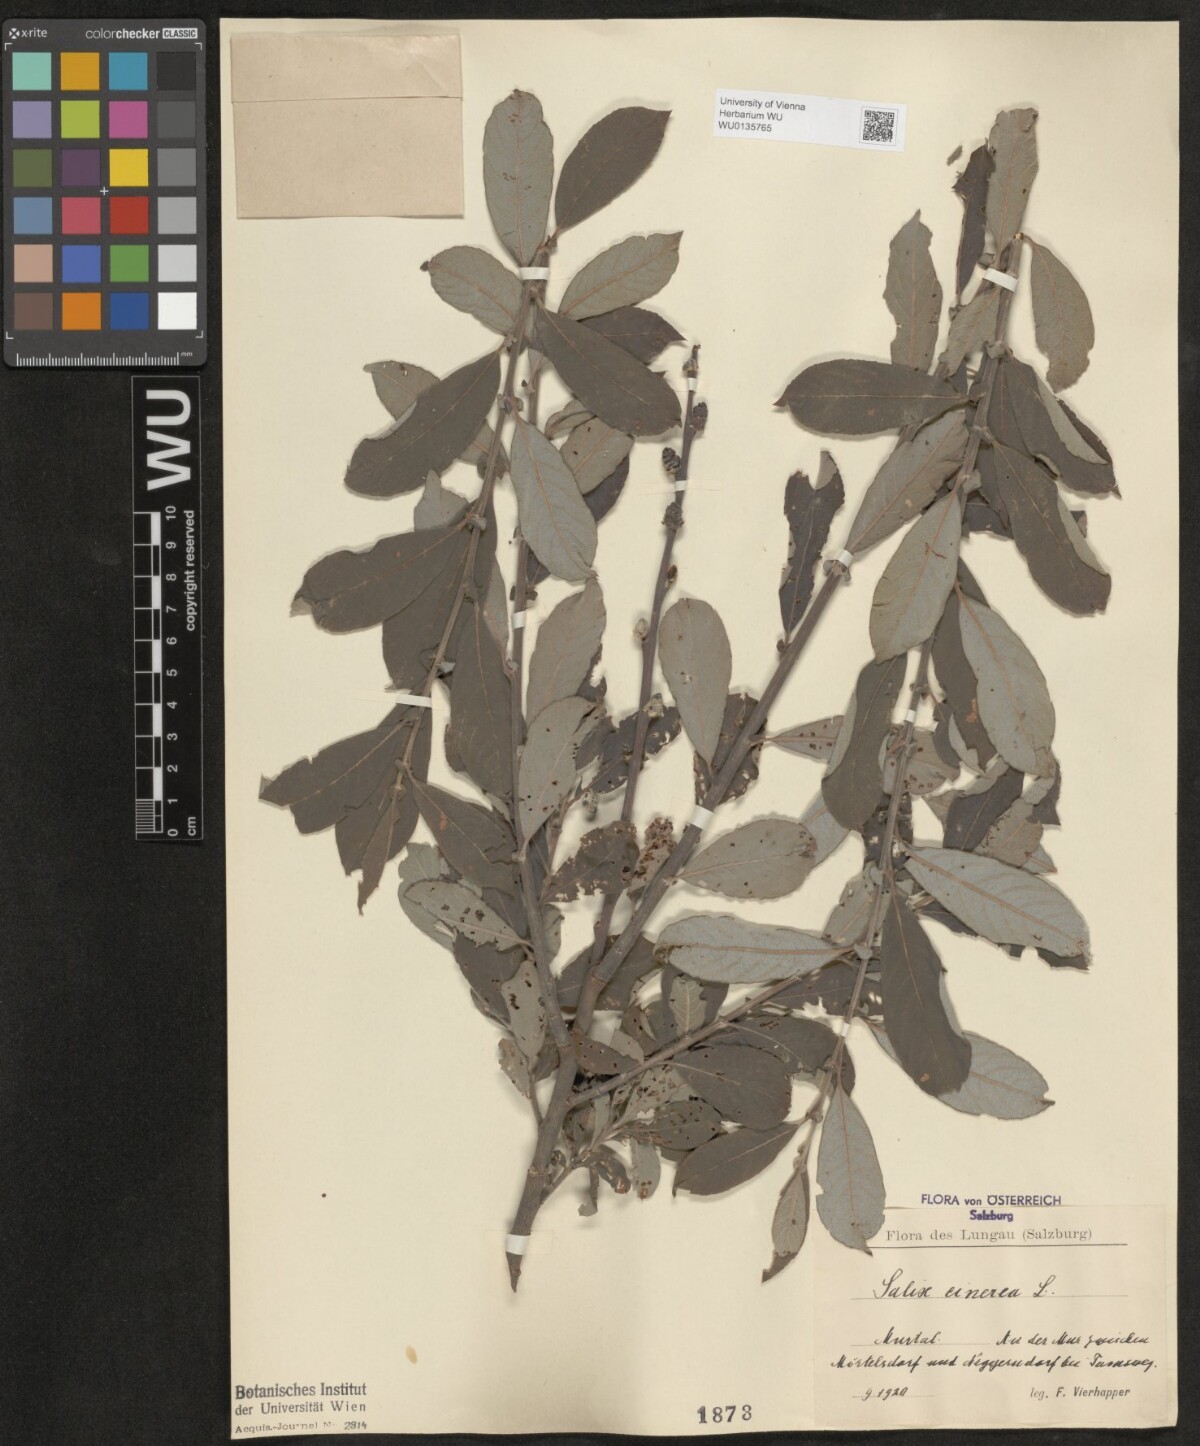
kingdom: Plantae
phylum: Tracheophyta
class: Magnoliopsida
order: Malpighiales
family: Salicaceae
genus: Salix
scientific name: Salix cinerea
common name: Common sallow
